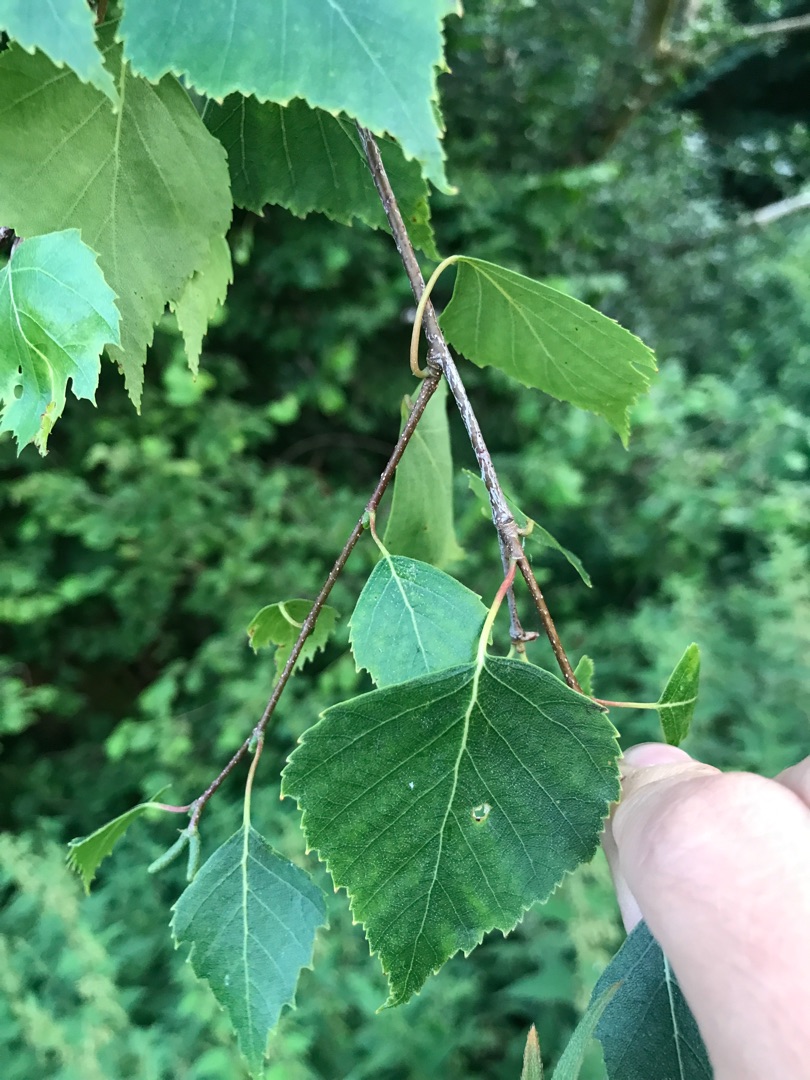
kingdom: Plantae
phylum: Tracheophyta
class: Magnoliopsida
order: Fagales
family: Betulaceae
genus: Betula
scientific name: Betula pendula
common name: Vorte-birk
